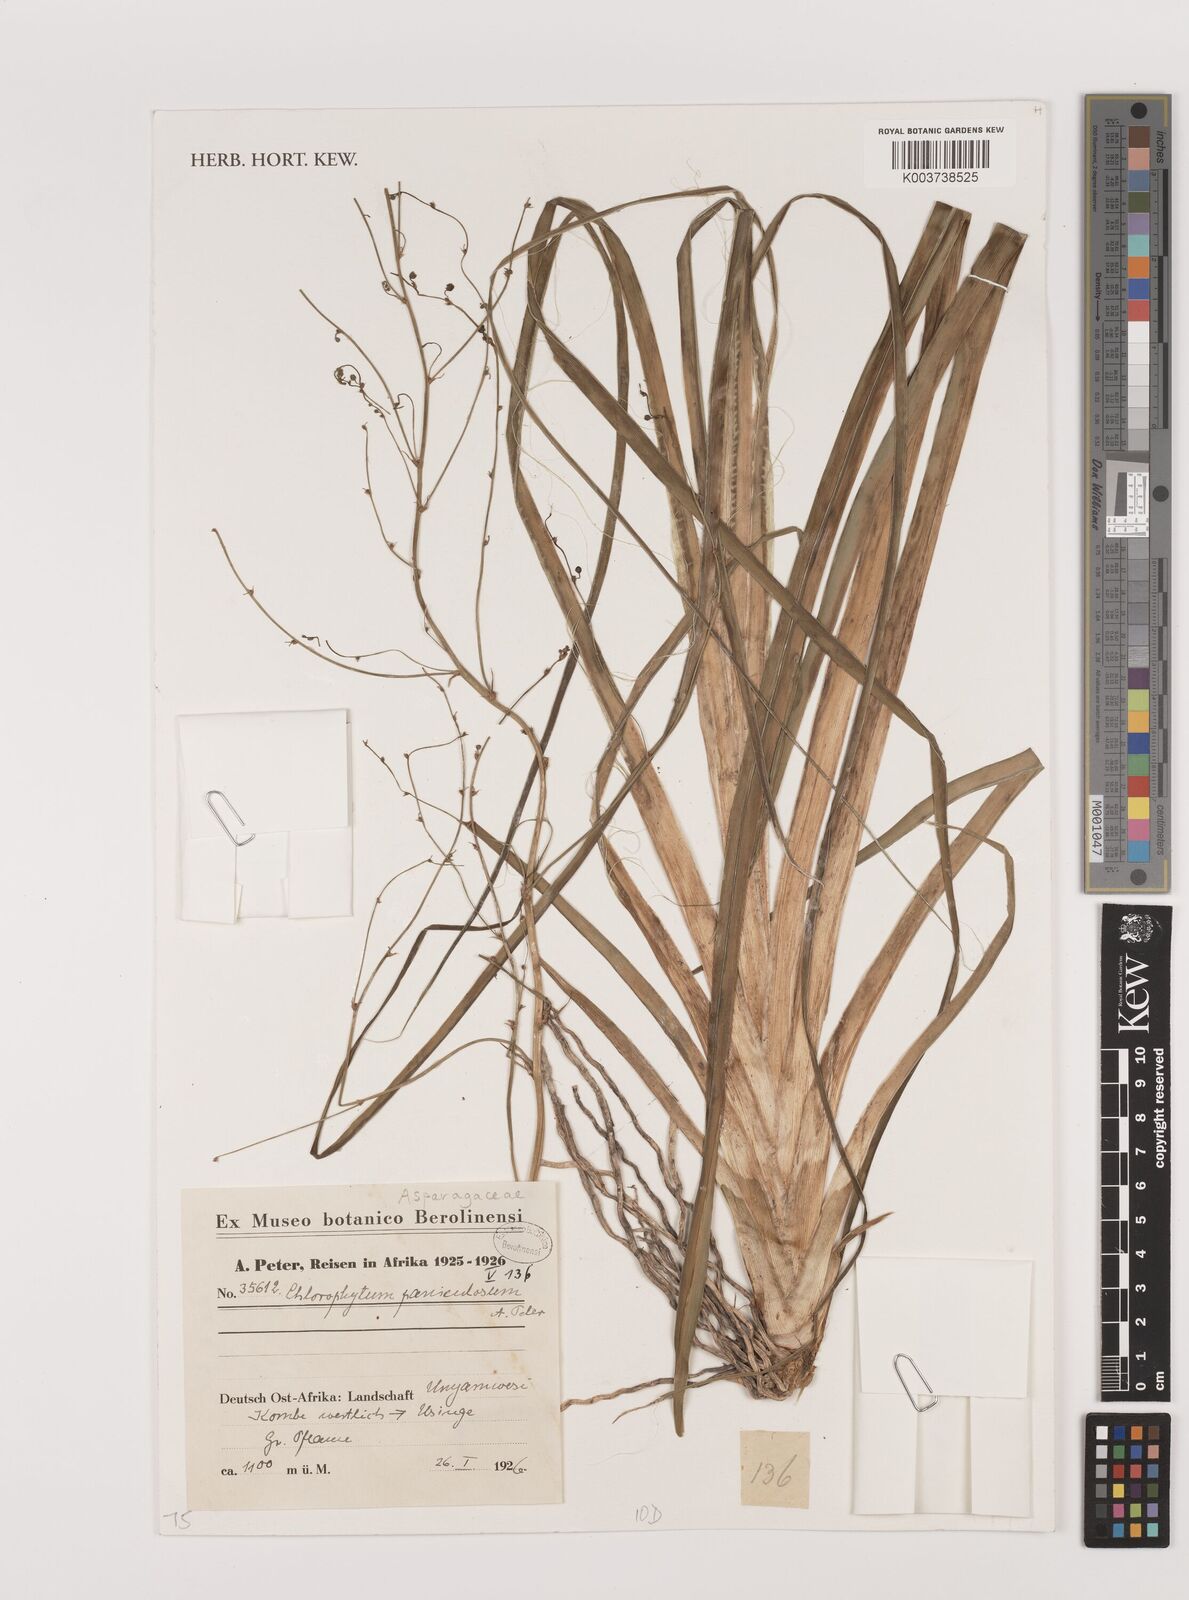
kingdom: Plantae
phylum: Tracheophyta
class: Liliopsida
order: Asparagales
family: Asparagaceae
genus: Chlorophytum
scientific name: Chlorophytum pubiflorum
